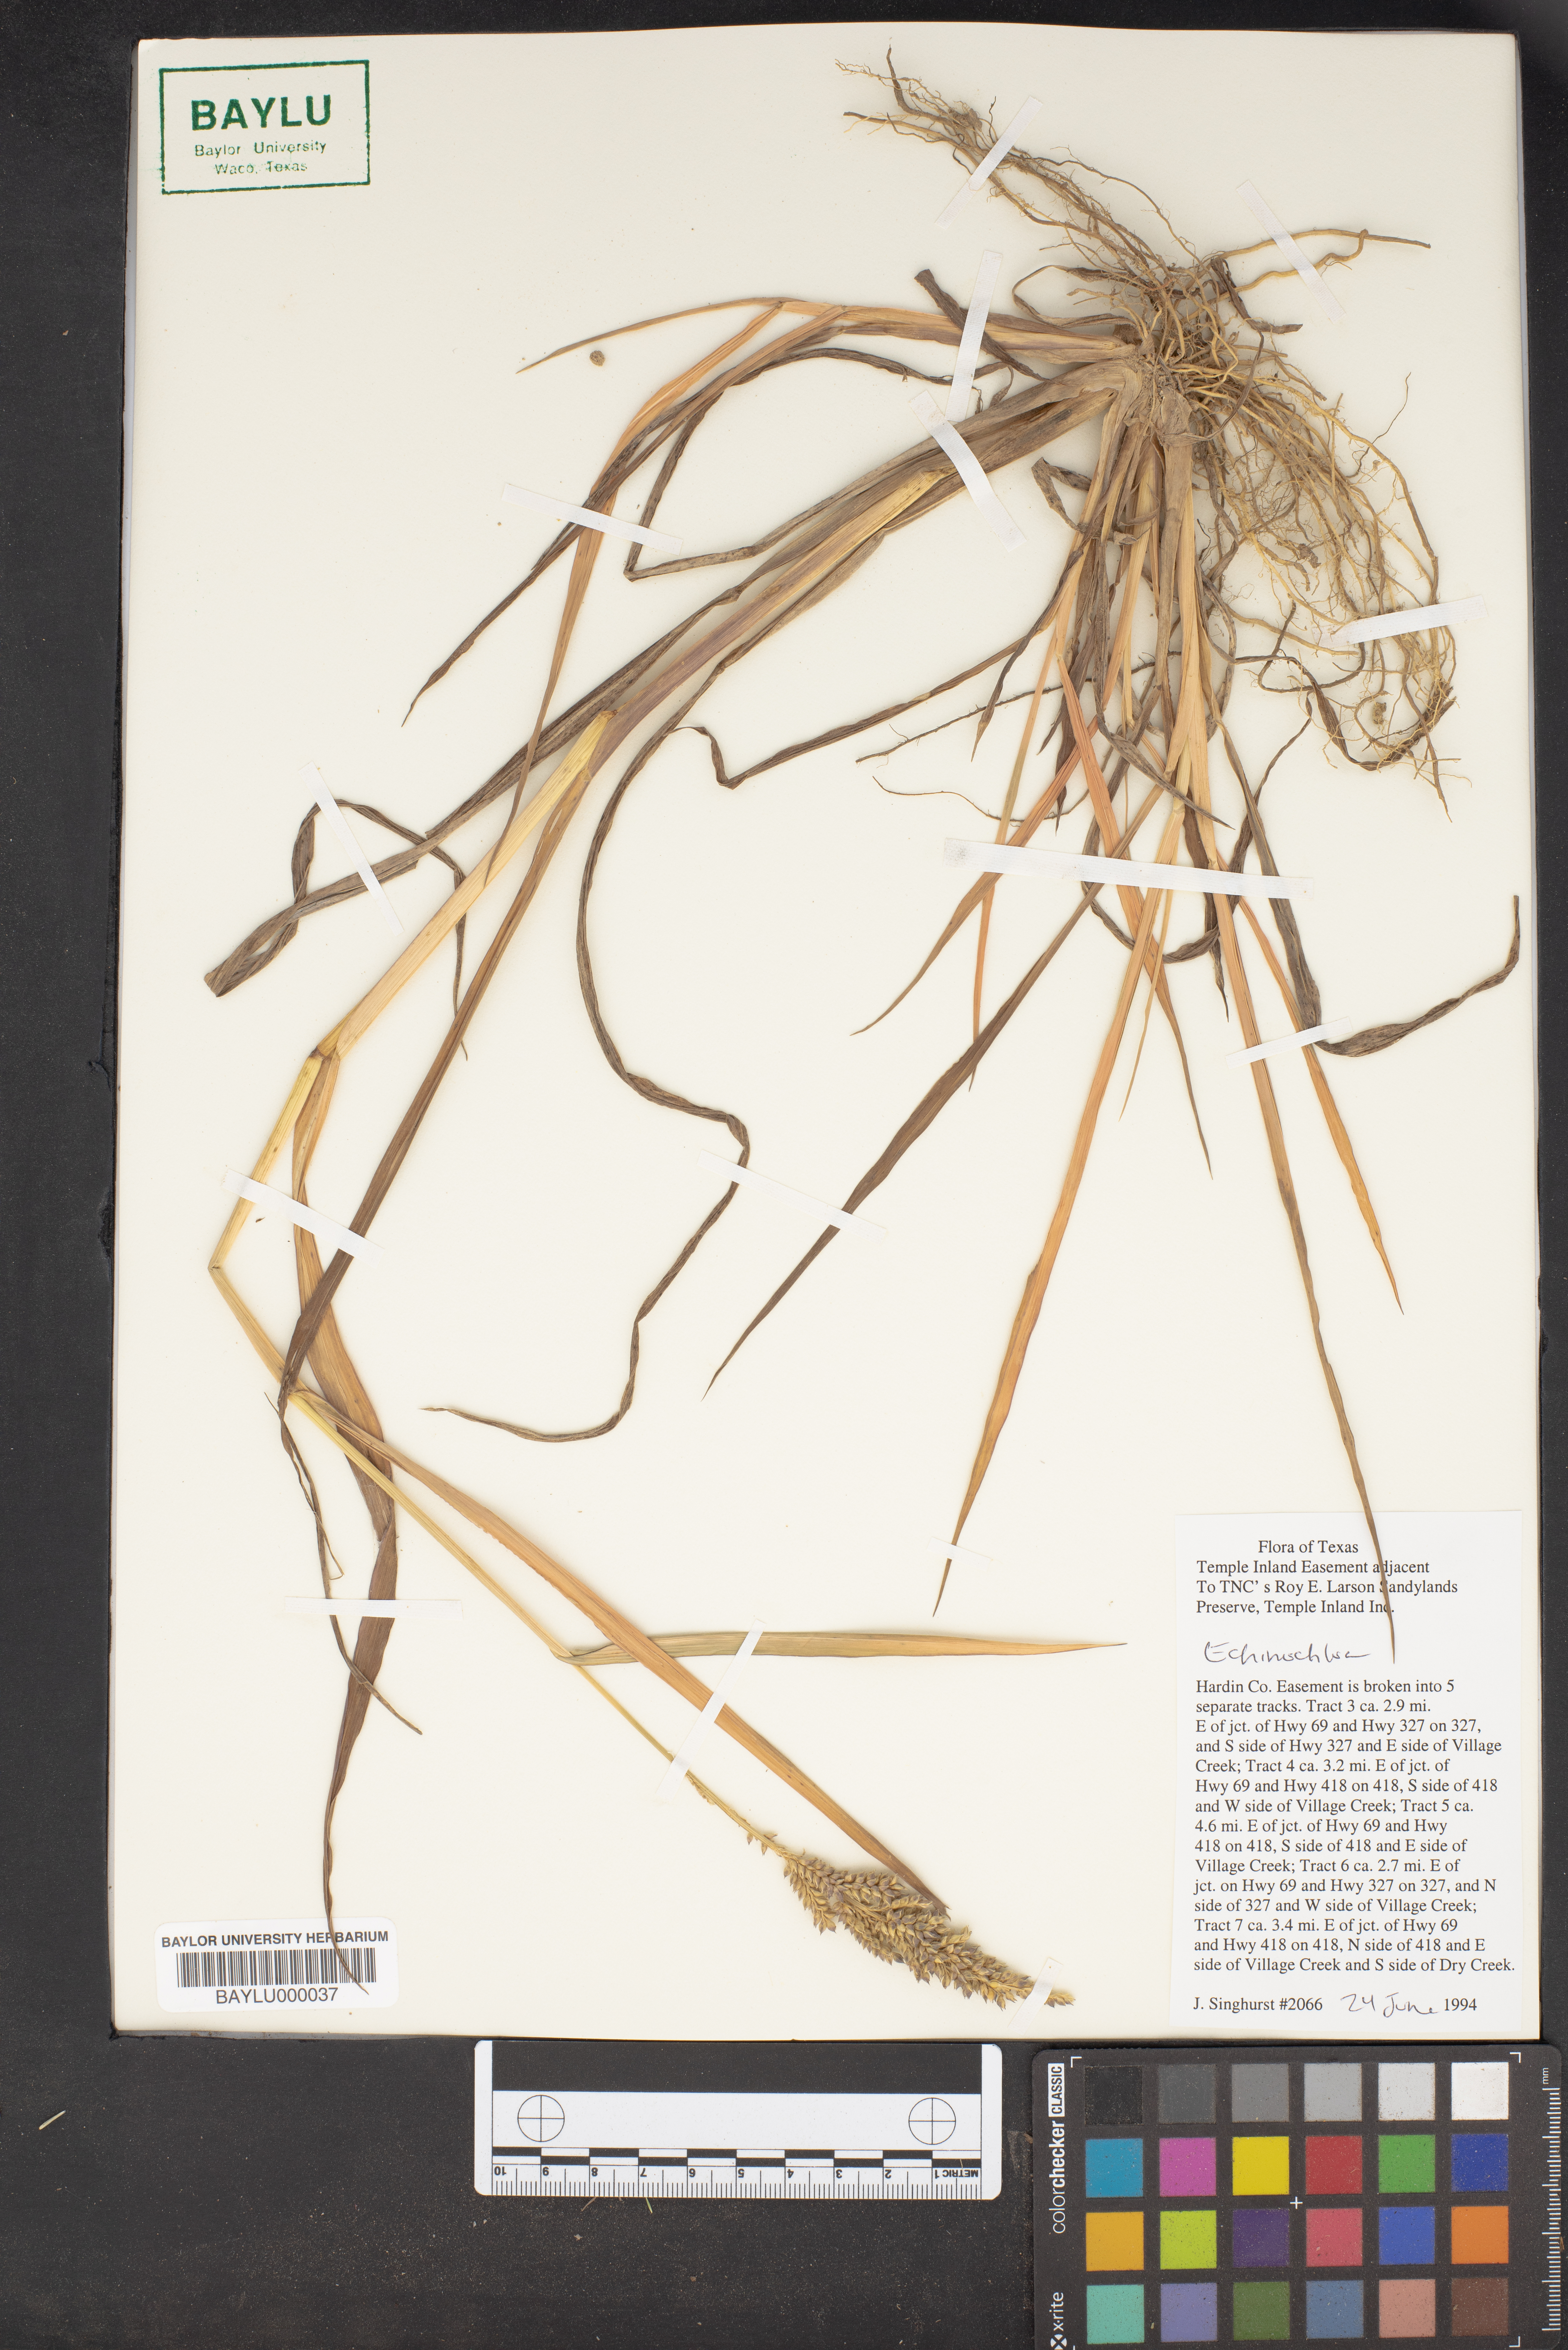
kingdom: Plantae
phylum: Tracheophyta
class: Liliopsida
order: Poales
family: Poaceae
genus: Echinochloa
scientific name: Echinochloa
